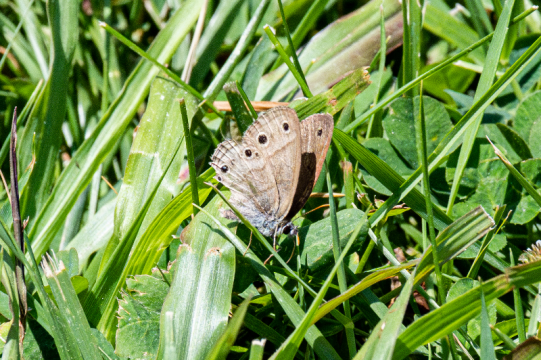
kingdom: Animalia
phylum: Arthropoda
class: Insecta
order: Lepidoptera
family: Nymphalidae
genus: Euptychia
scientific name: Euptychia cymela
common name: Little Wood Satyr
